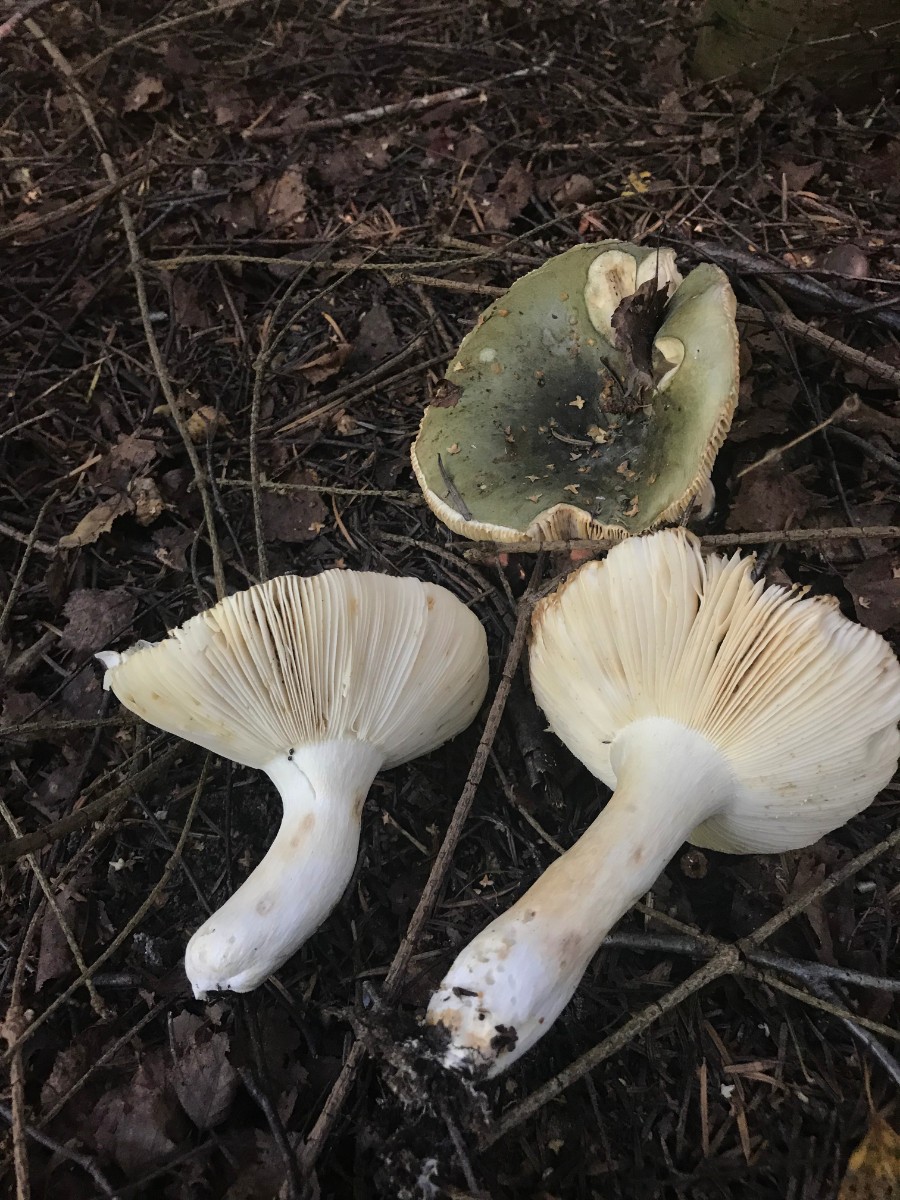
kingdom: Fungi
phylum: Basidiomycota
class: Agaricomycetes
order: Russulales
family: Russulaceae
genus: Russula
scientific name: Russula heterophylla
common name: gaffelbladet skørhat
